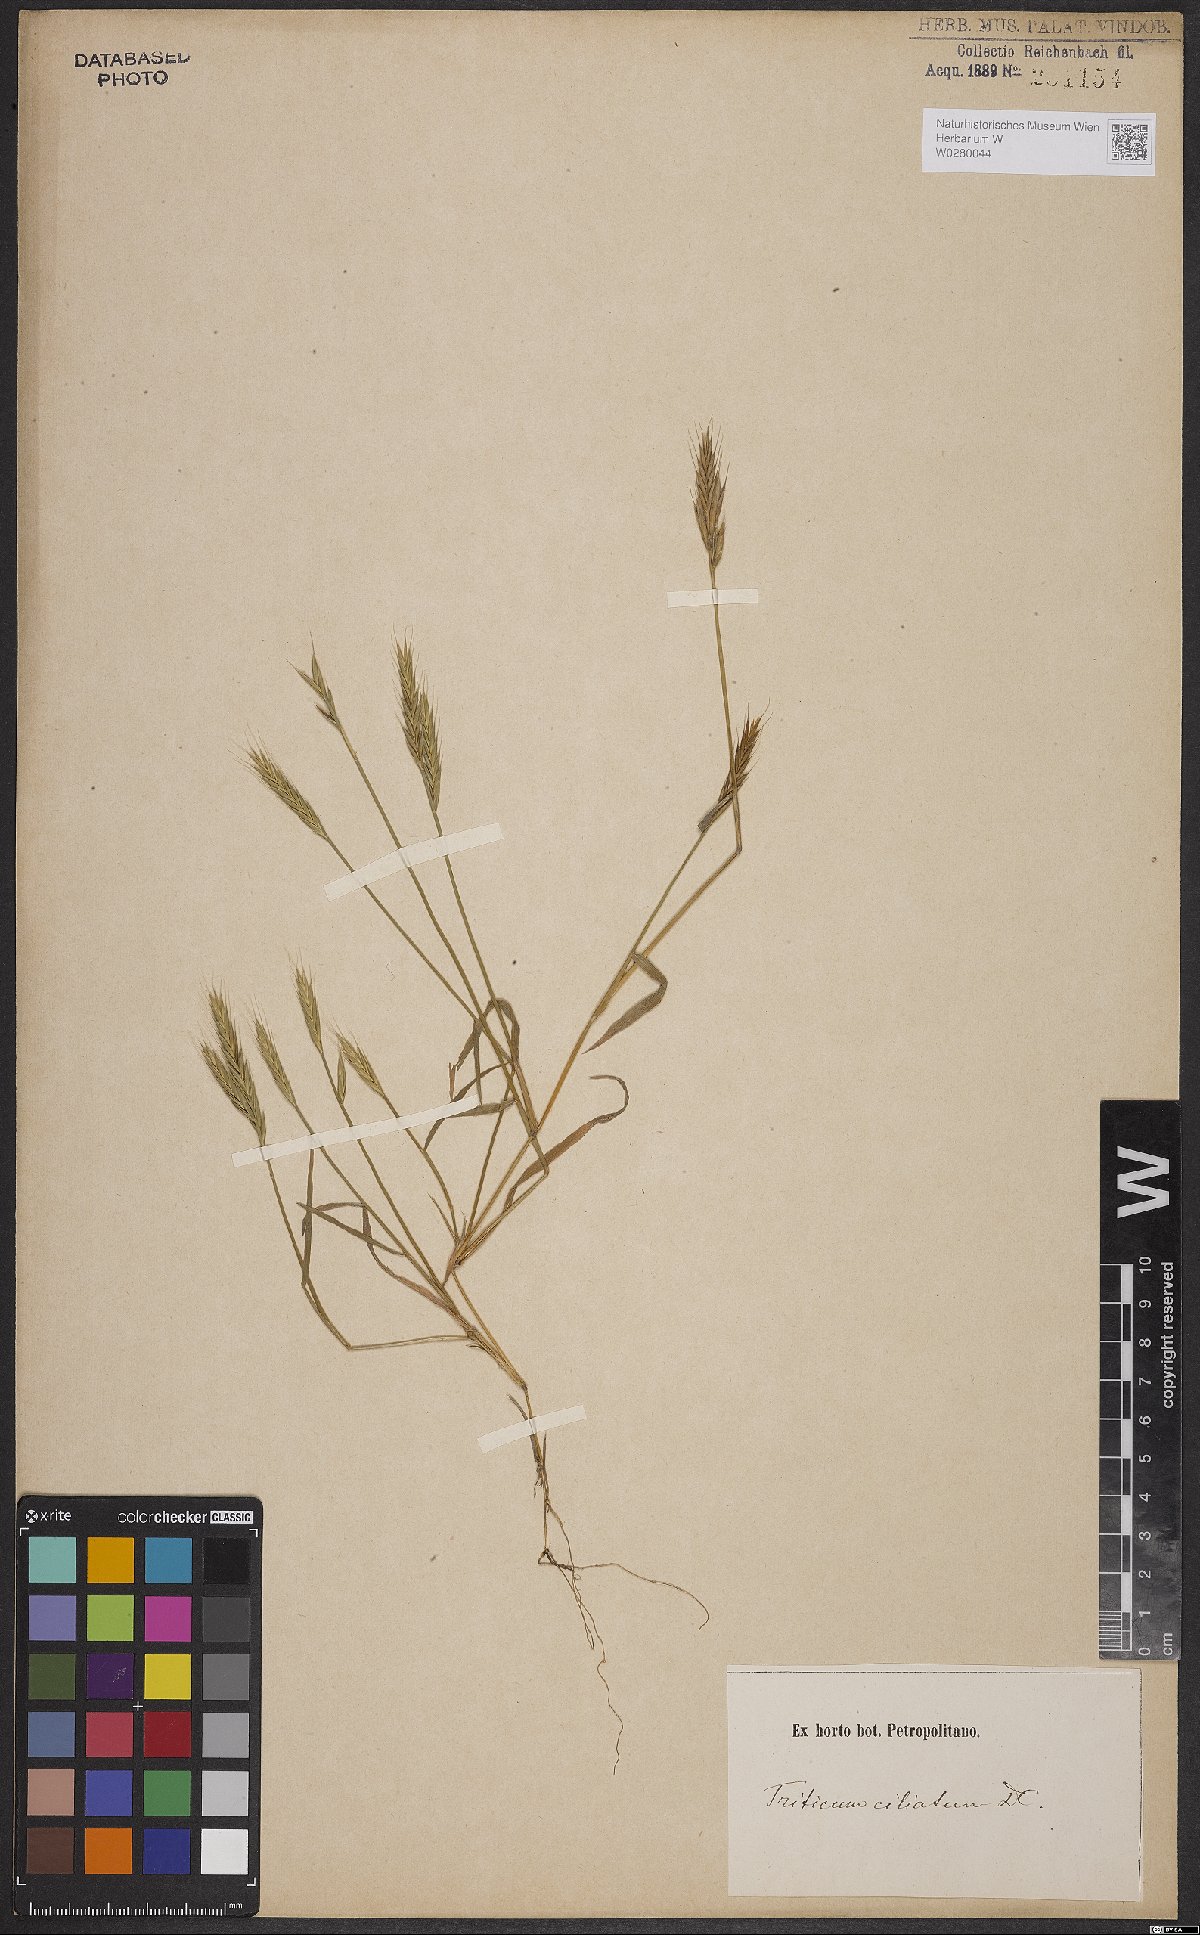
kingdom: Plantae
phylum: Tracheophyta
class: Liliopsida
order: Poales
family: Poaceae
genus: Brachypodium
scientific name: Brachypodium distachyon
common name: Stiff brome
